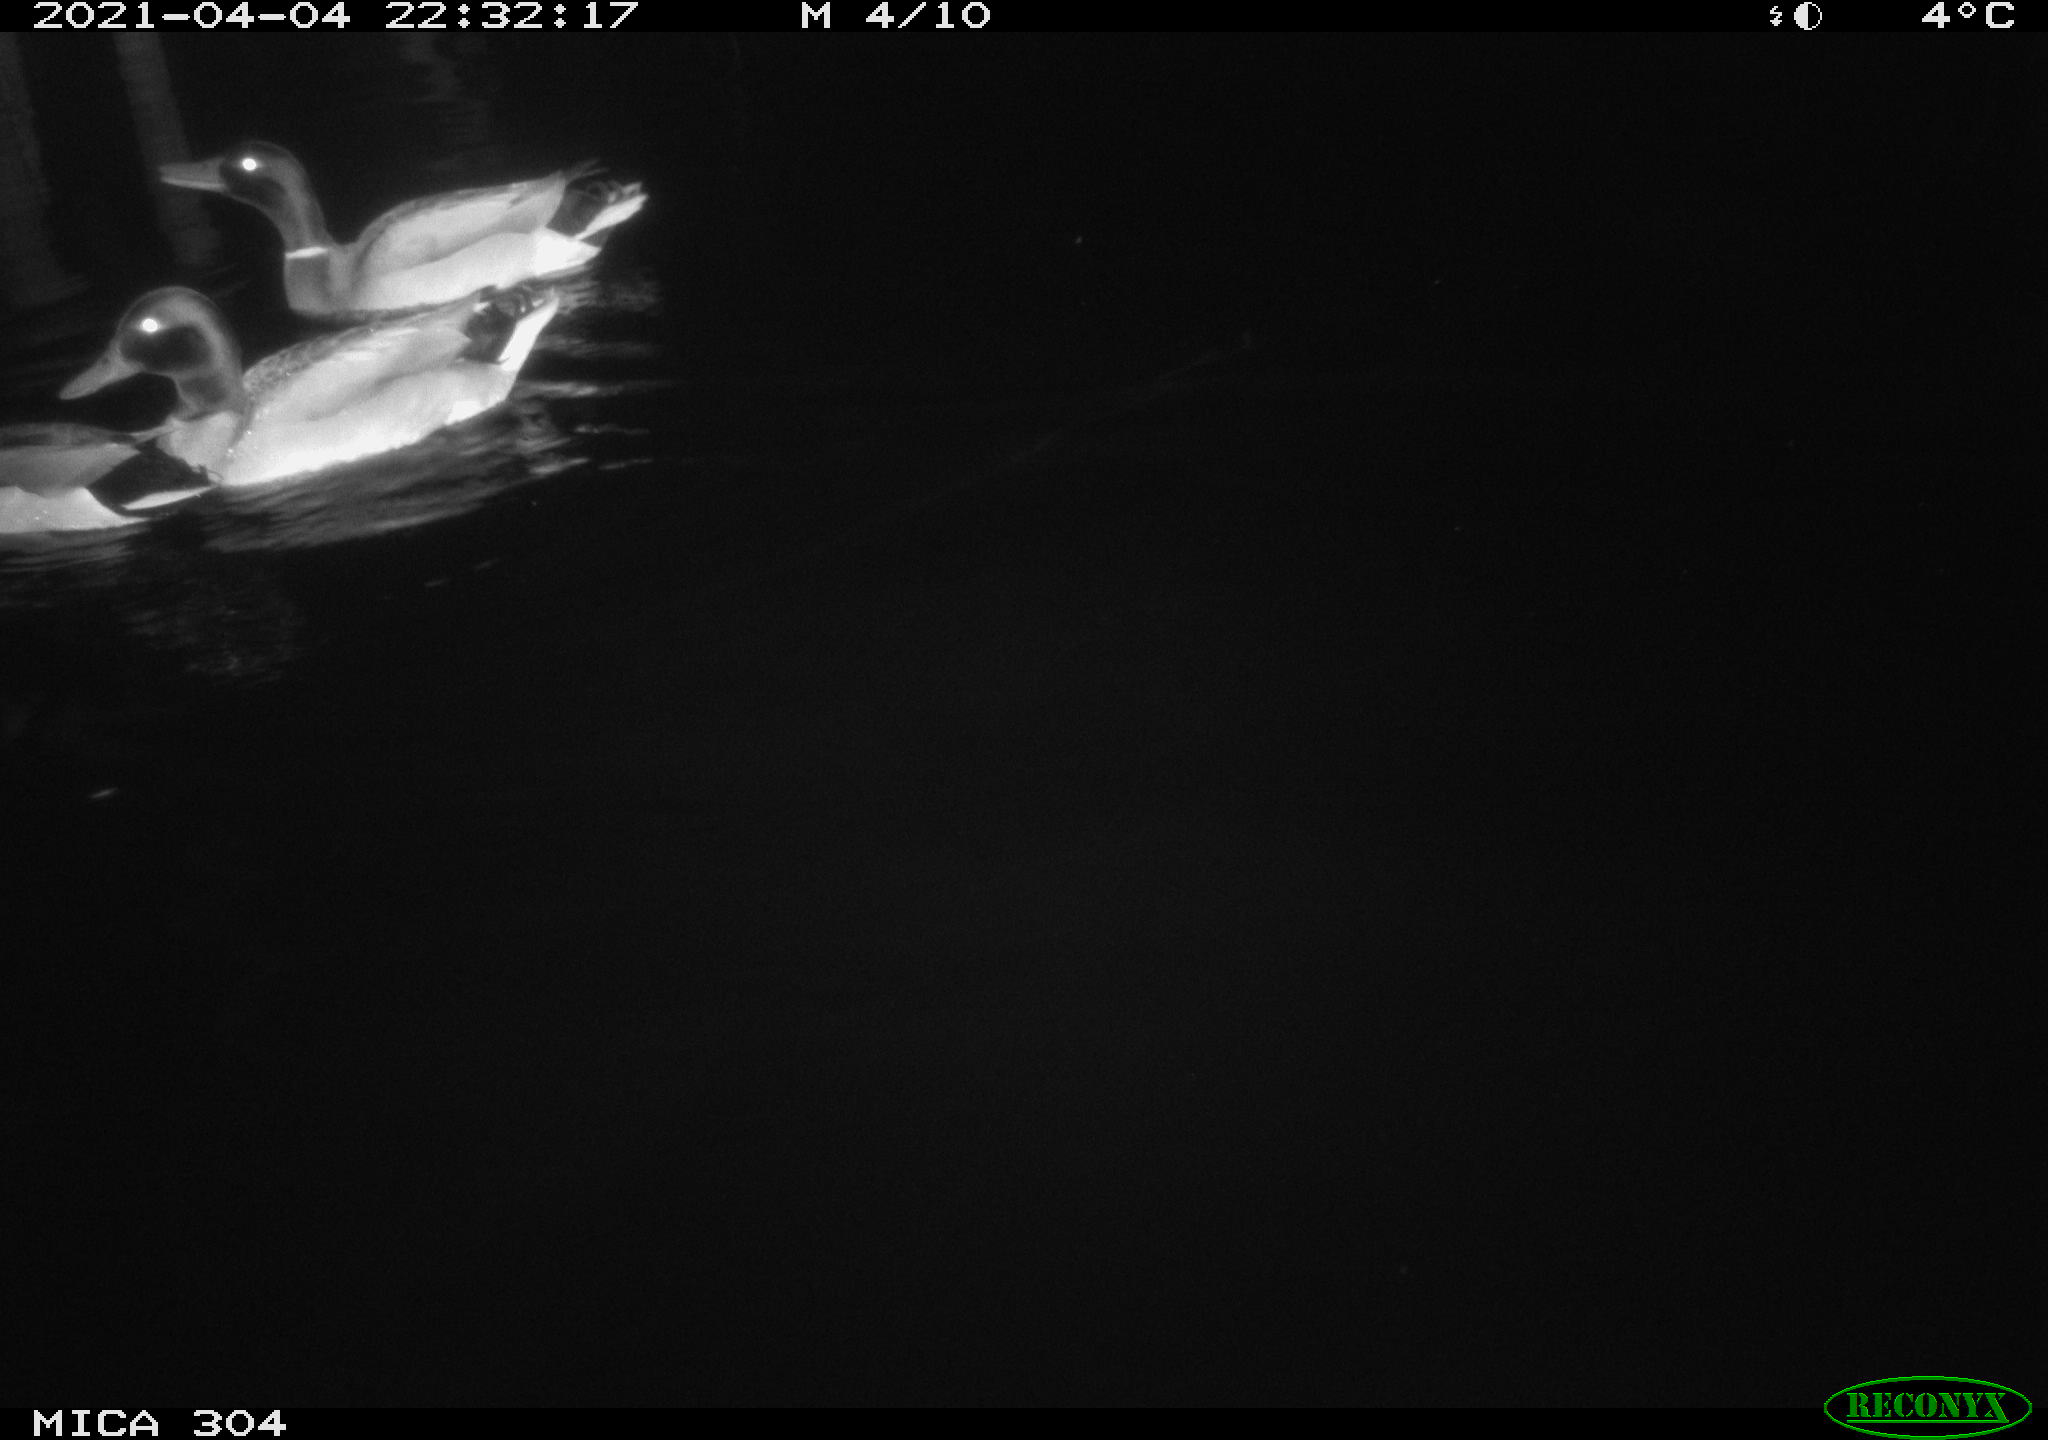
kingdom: Animalia
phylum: Chordata
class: Aves
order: Anseriformes
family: Anatidae
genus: Anas
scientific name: Anas
